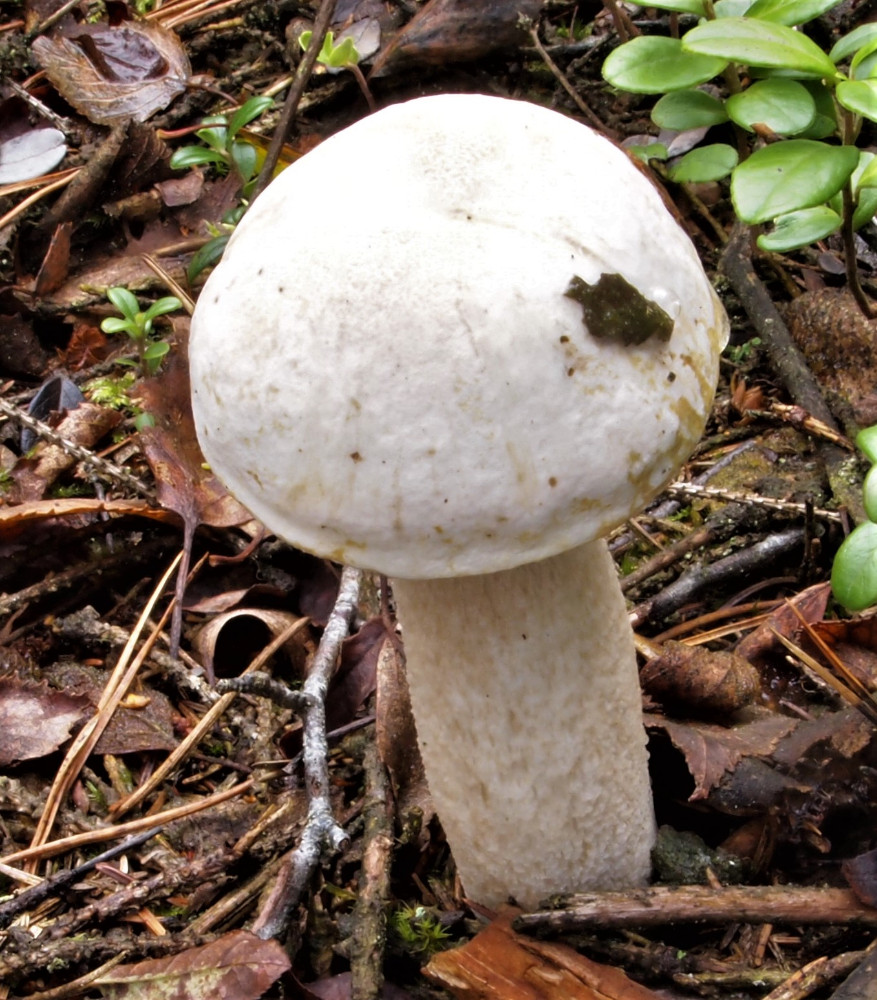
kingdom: Fungi
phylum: Basidiomycota
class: Agaricomycetes
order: Boletales
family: Boletaceae
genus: Leccinum
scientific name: Leccinum scabrum
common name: hvid skælrørhat
